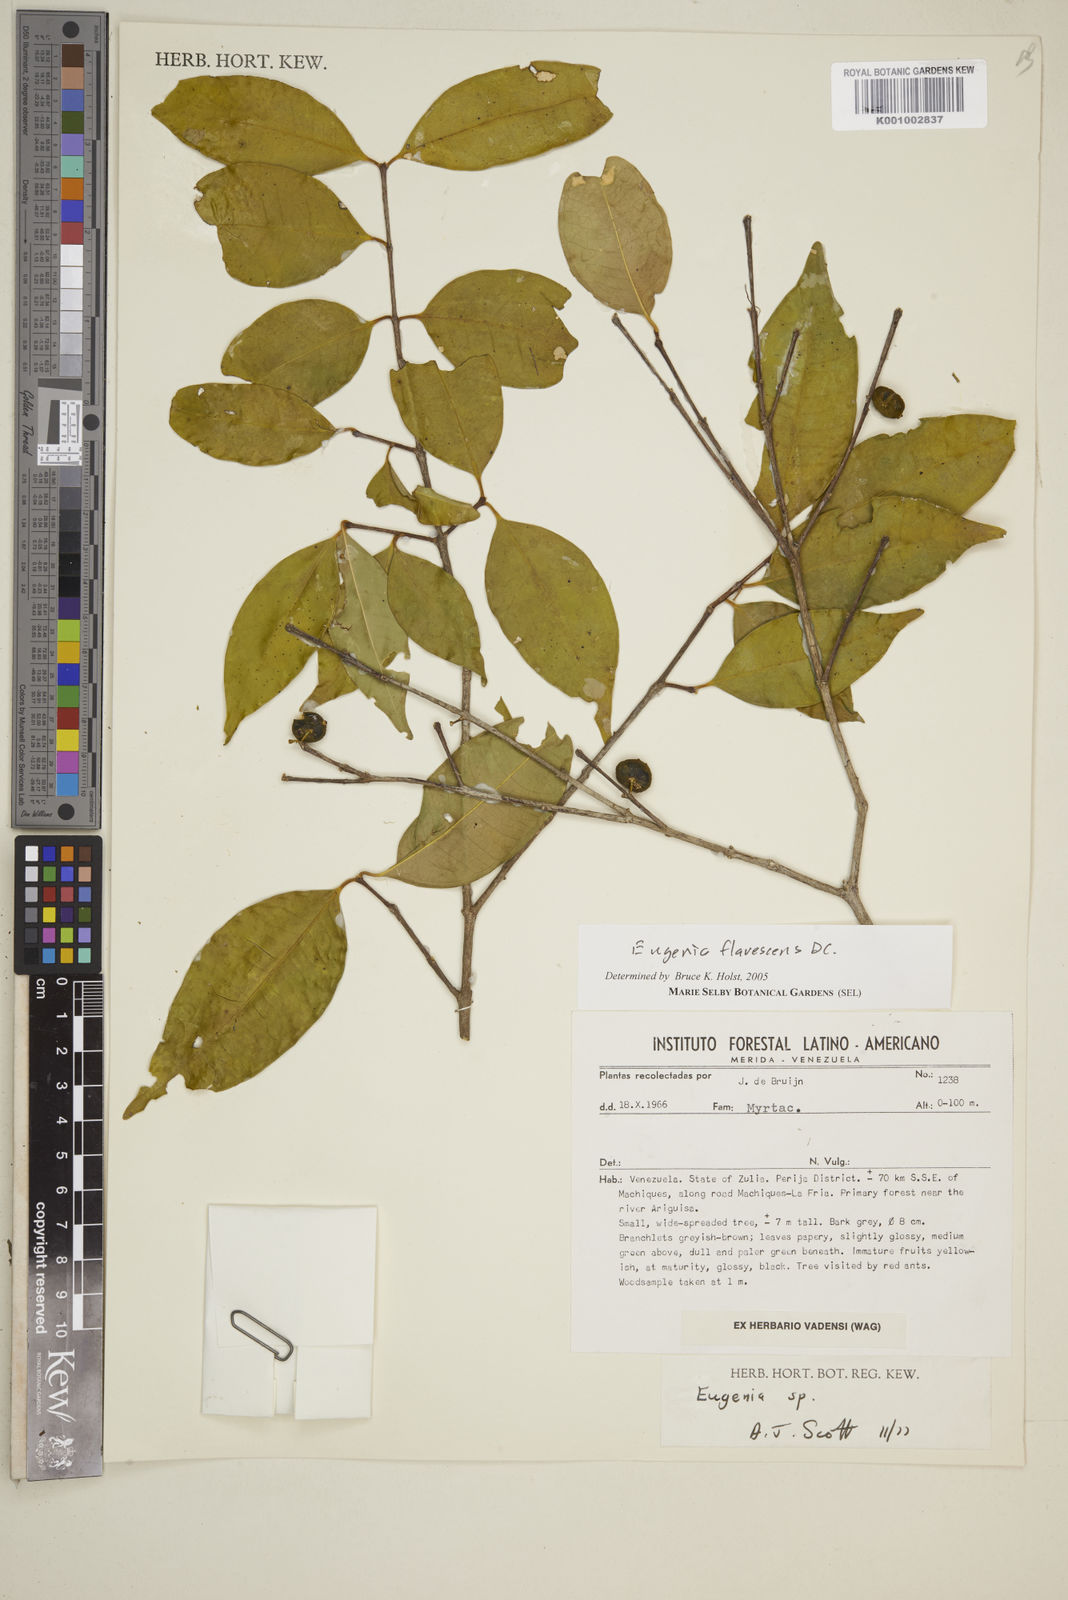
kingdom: Plantae
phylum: Tracheophyta
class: Magnoliopsida
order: Myrtales
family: Myrtaceae
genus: Eugenia
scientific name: Eugenia flavescens
